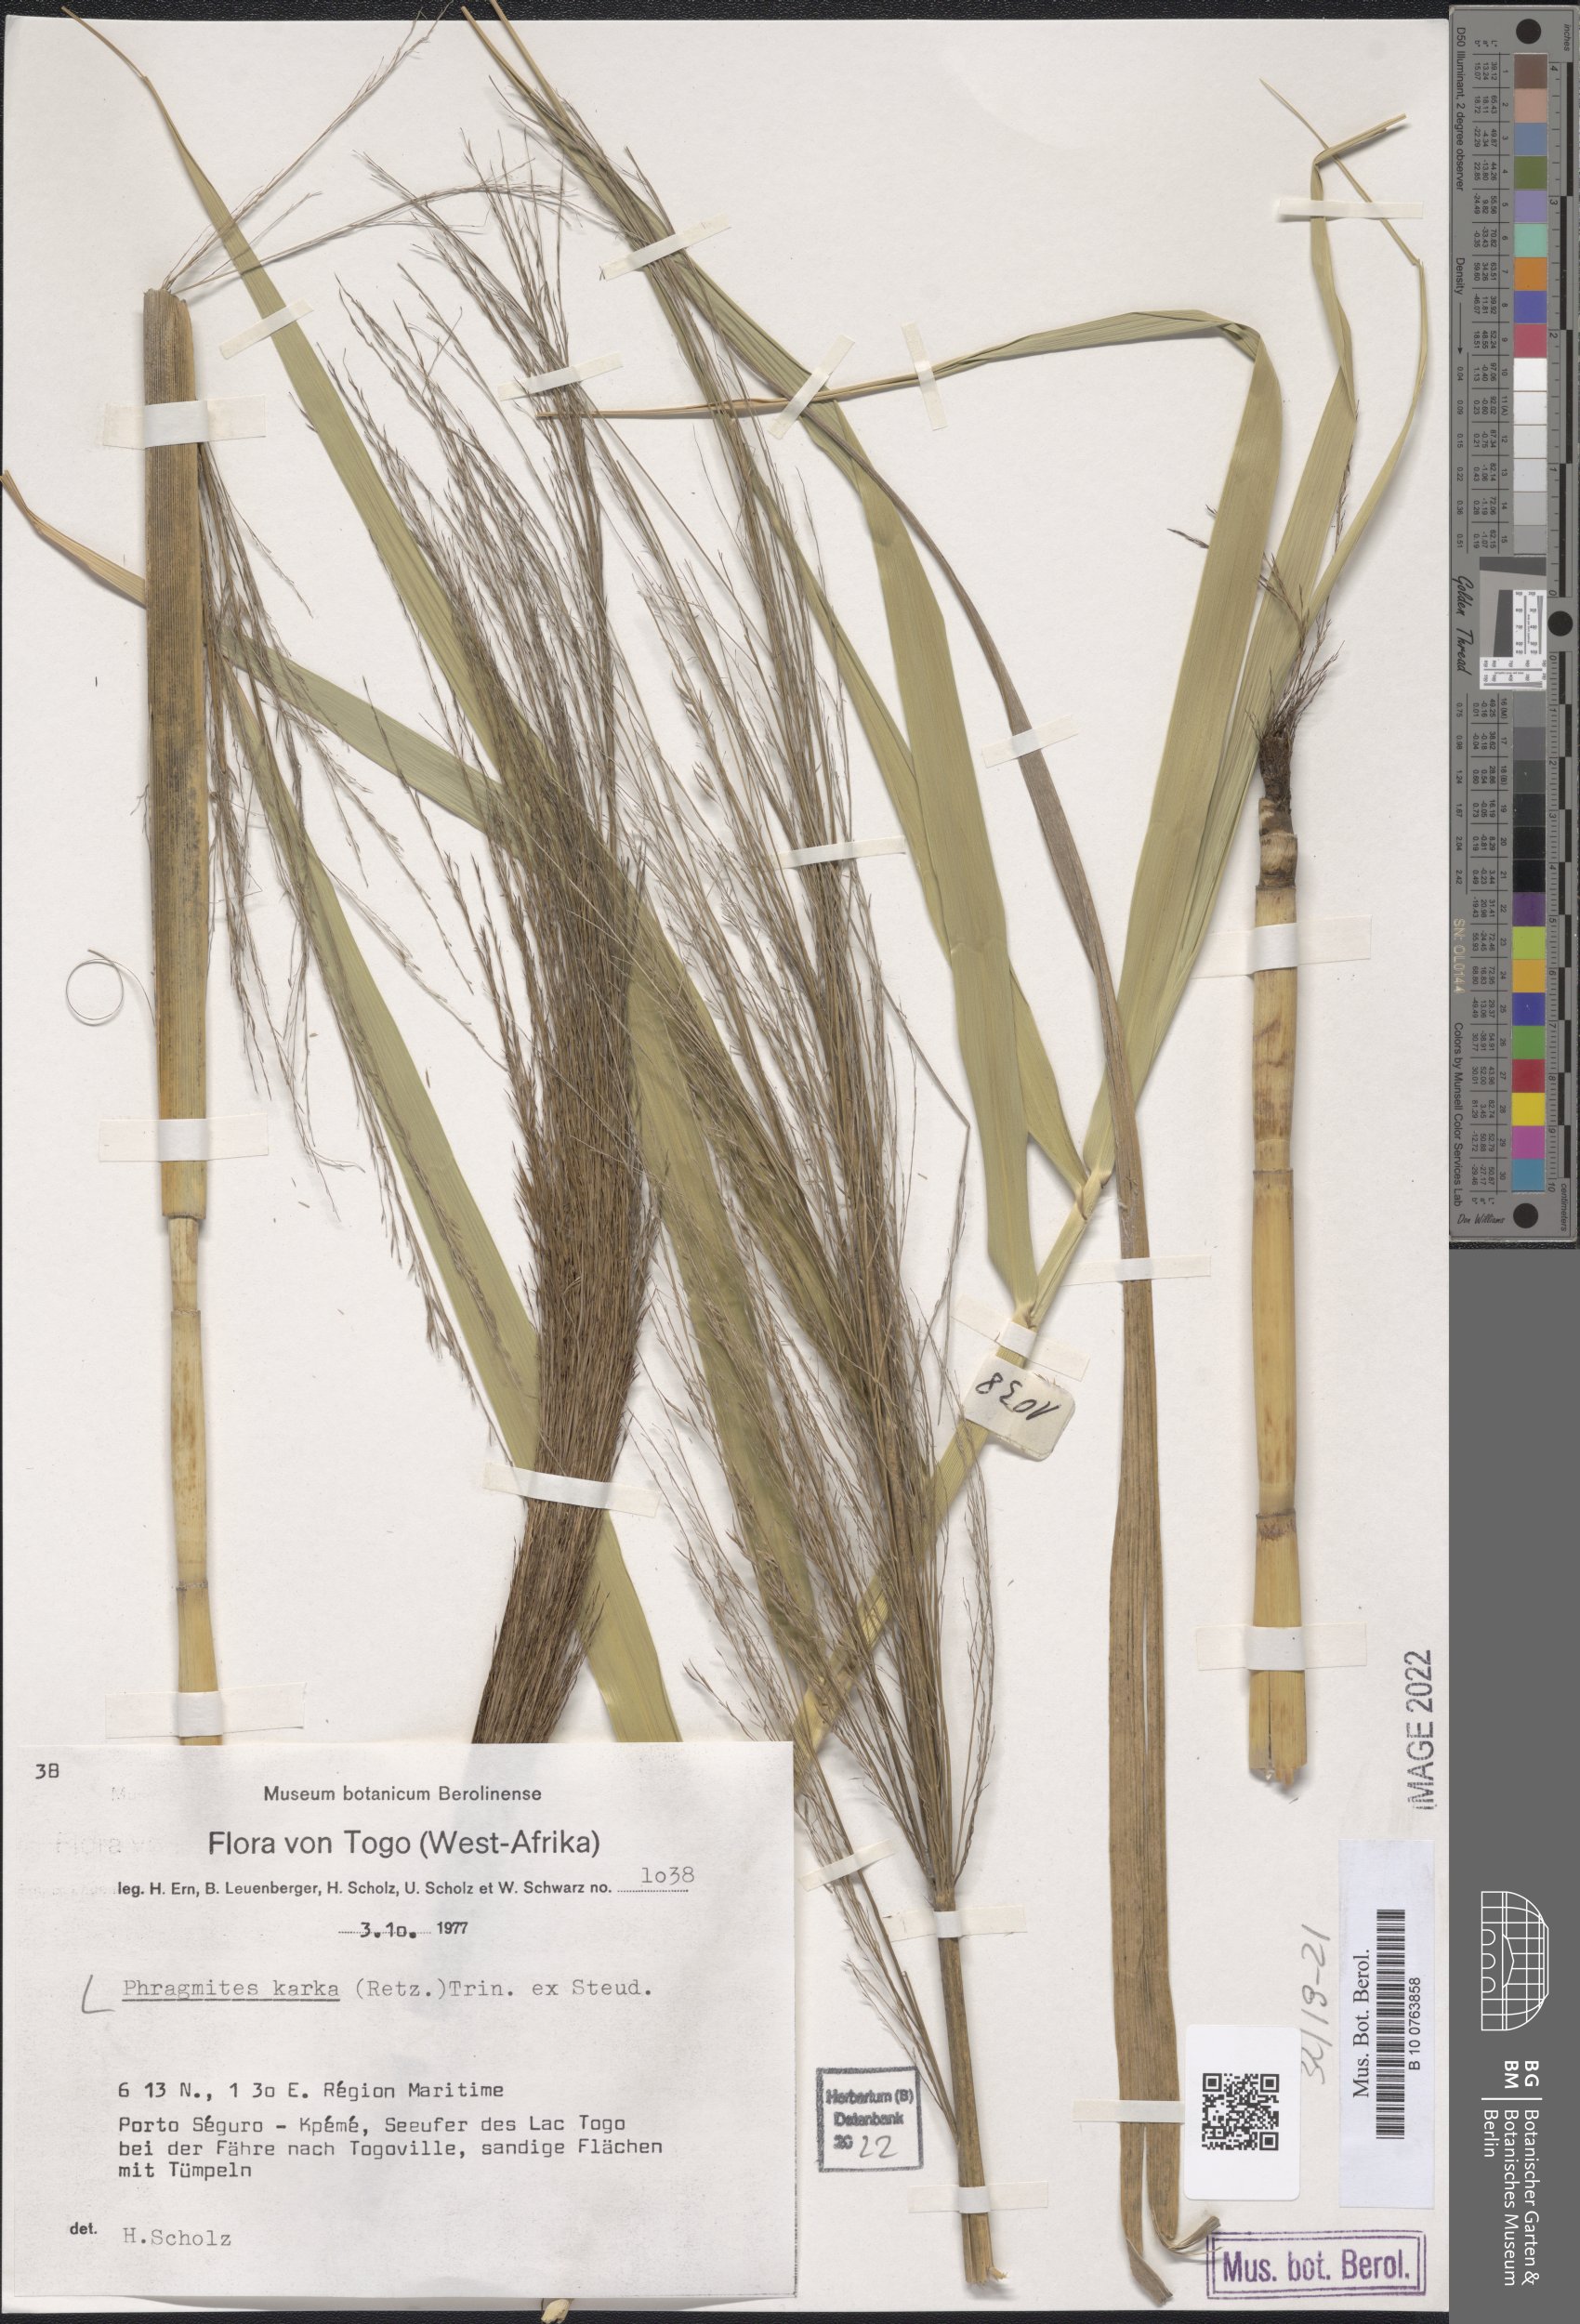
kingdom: Plantae
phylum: Tracheophyta
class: Liliopsida
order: Poales
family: Poaceae
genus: Phragmites
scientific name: Phragmites karka
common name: Tropical reed
